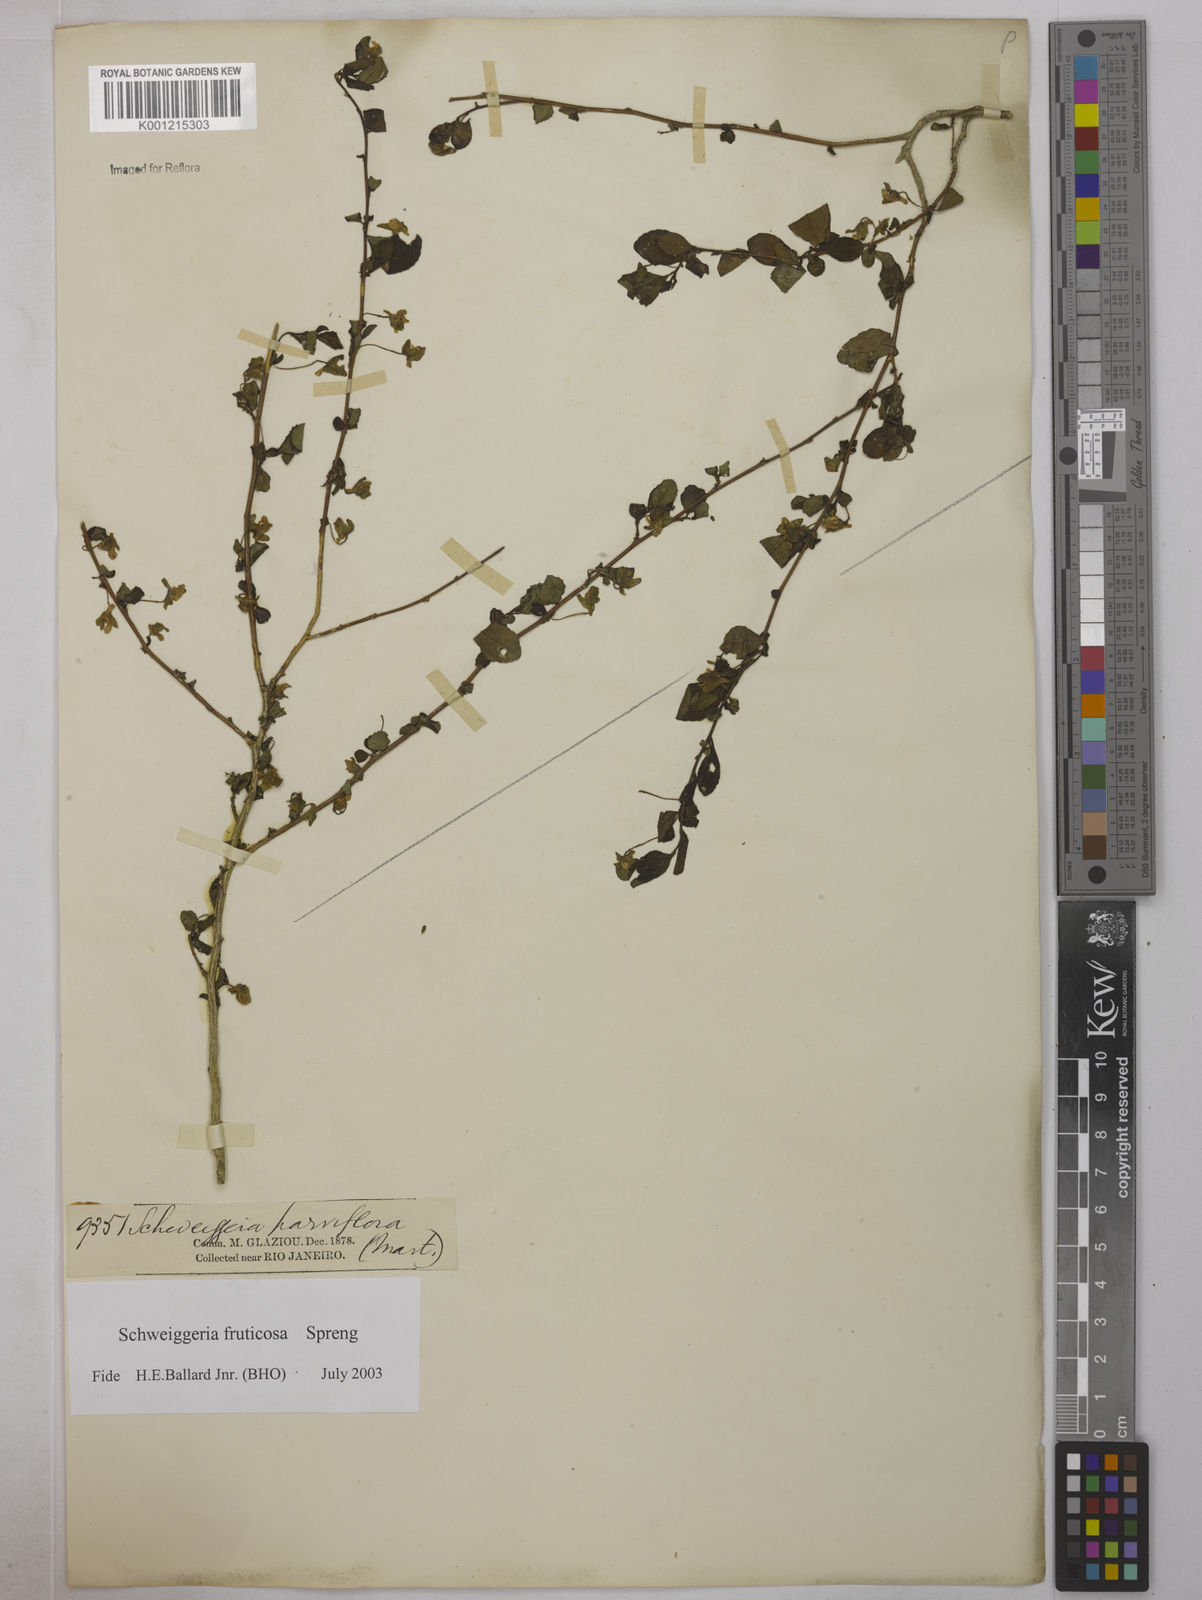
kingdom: Plantae
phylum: Tracheophyta
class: Magnoliopsida
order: Malpighiales
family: Violaceae
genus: Schweiggeria
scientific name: Schweiggeria fruticosa
